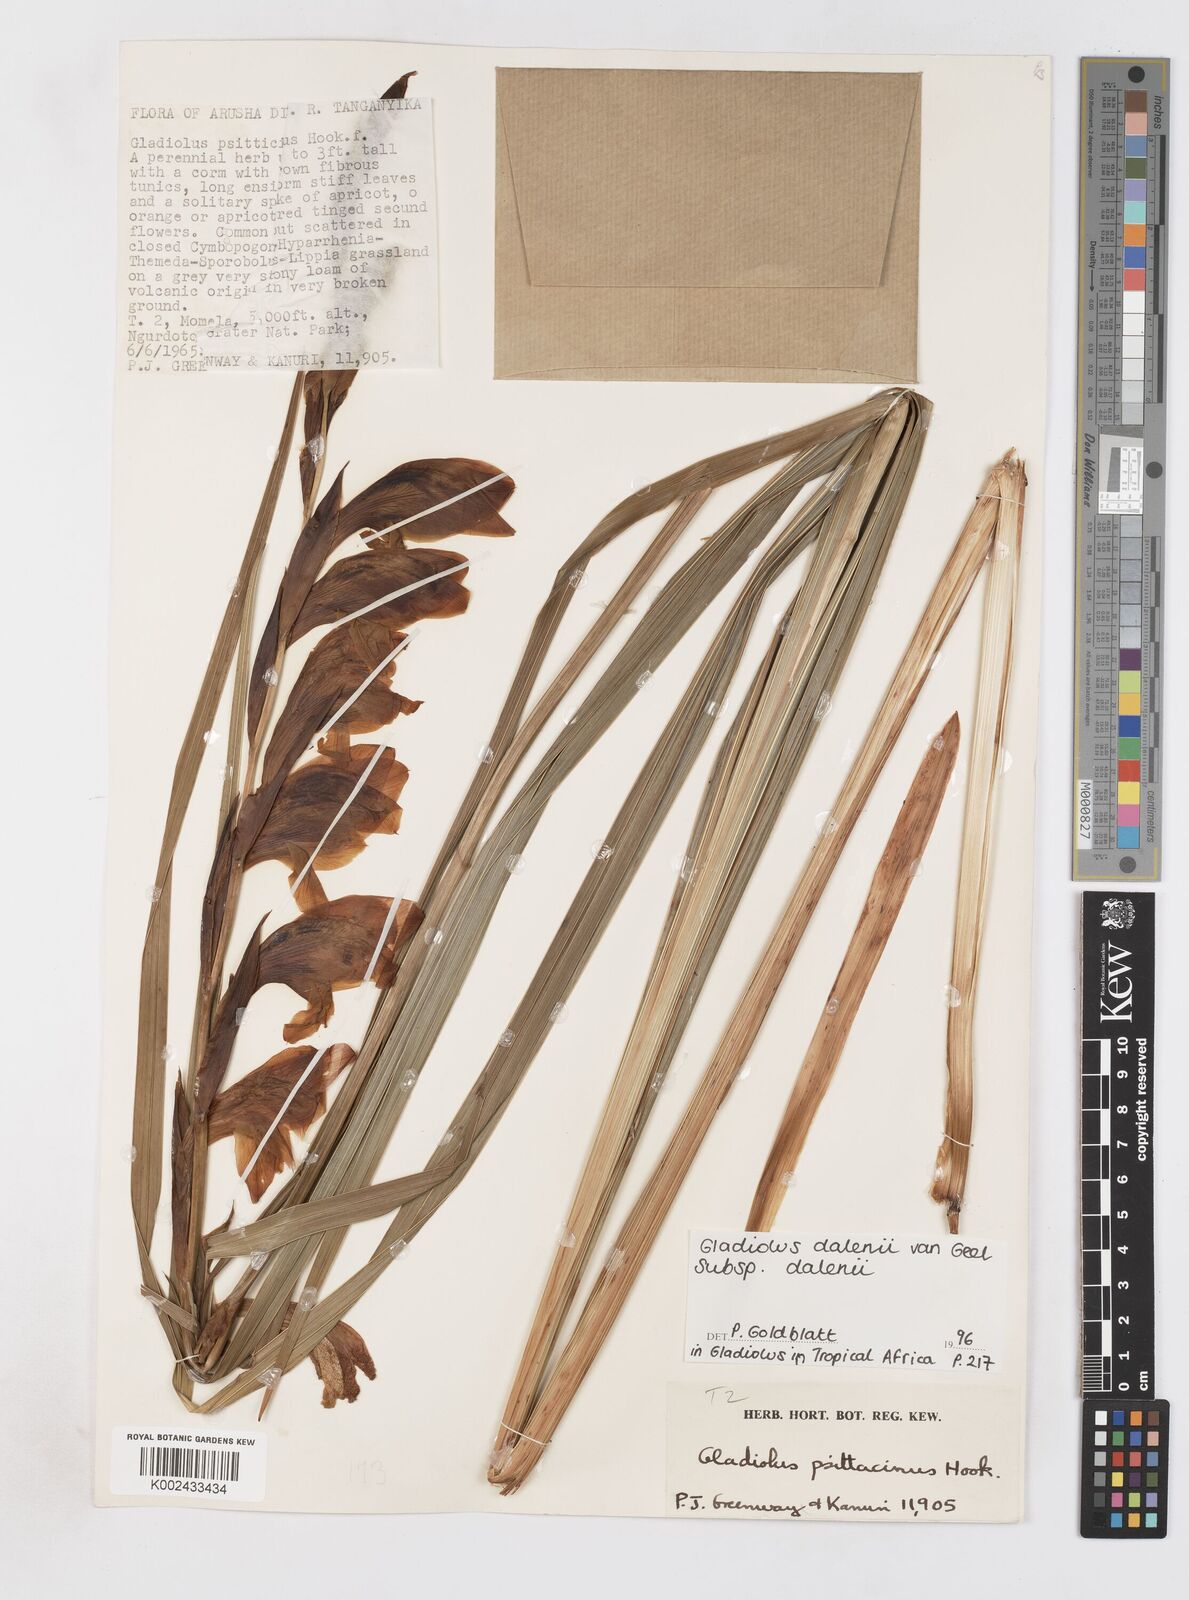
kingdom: Plantae
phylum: Tracheophyta
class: Liliopsida
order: Asparagales
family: Iridaceae
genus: Gladiolus
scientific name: Gladiolus dalenii
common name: Cornflag
